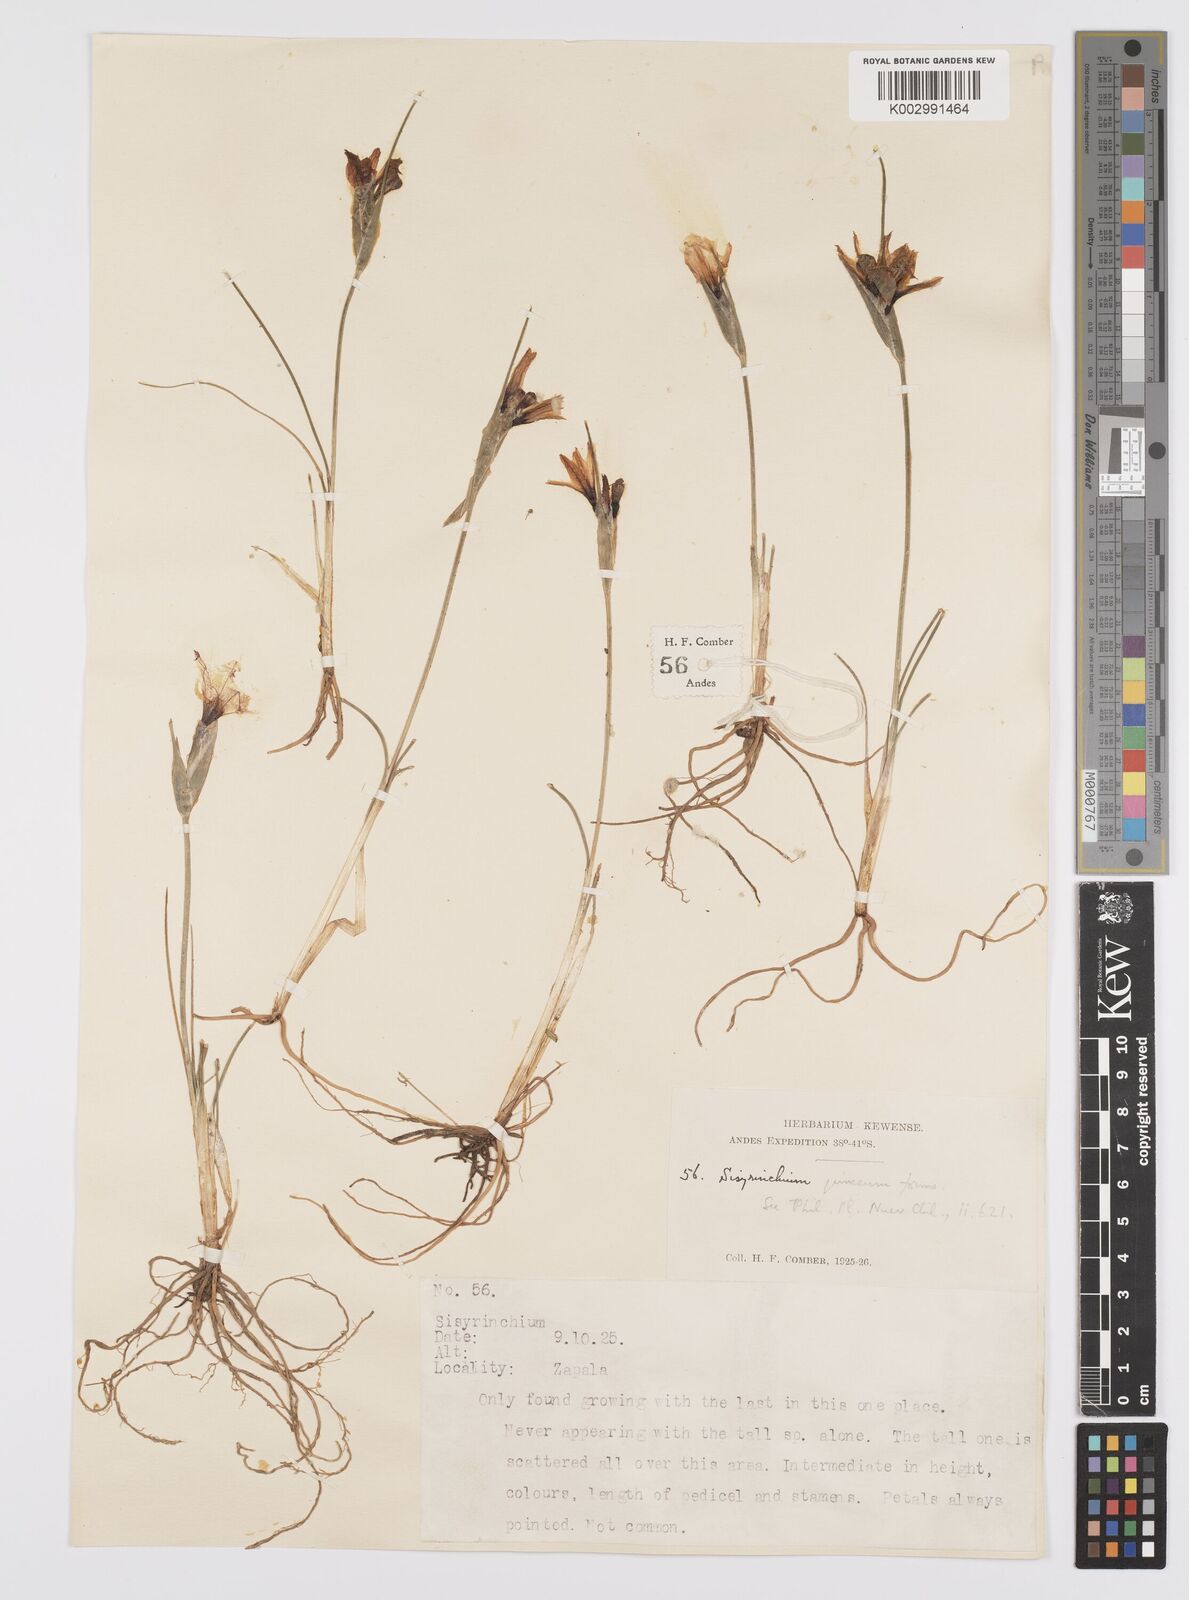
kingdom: Plantae
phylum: Tracheophyta
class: Liliopsida
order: Asparagales
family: Iridaceae
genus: Olsynium
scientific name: Olsynium junceum
